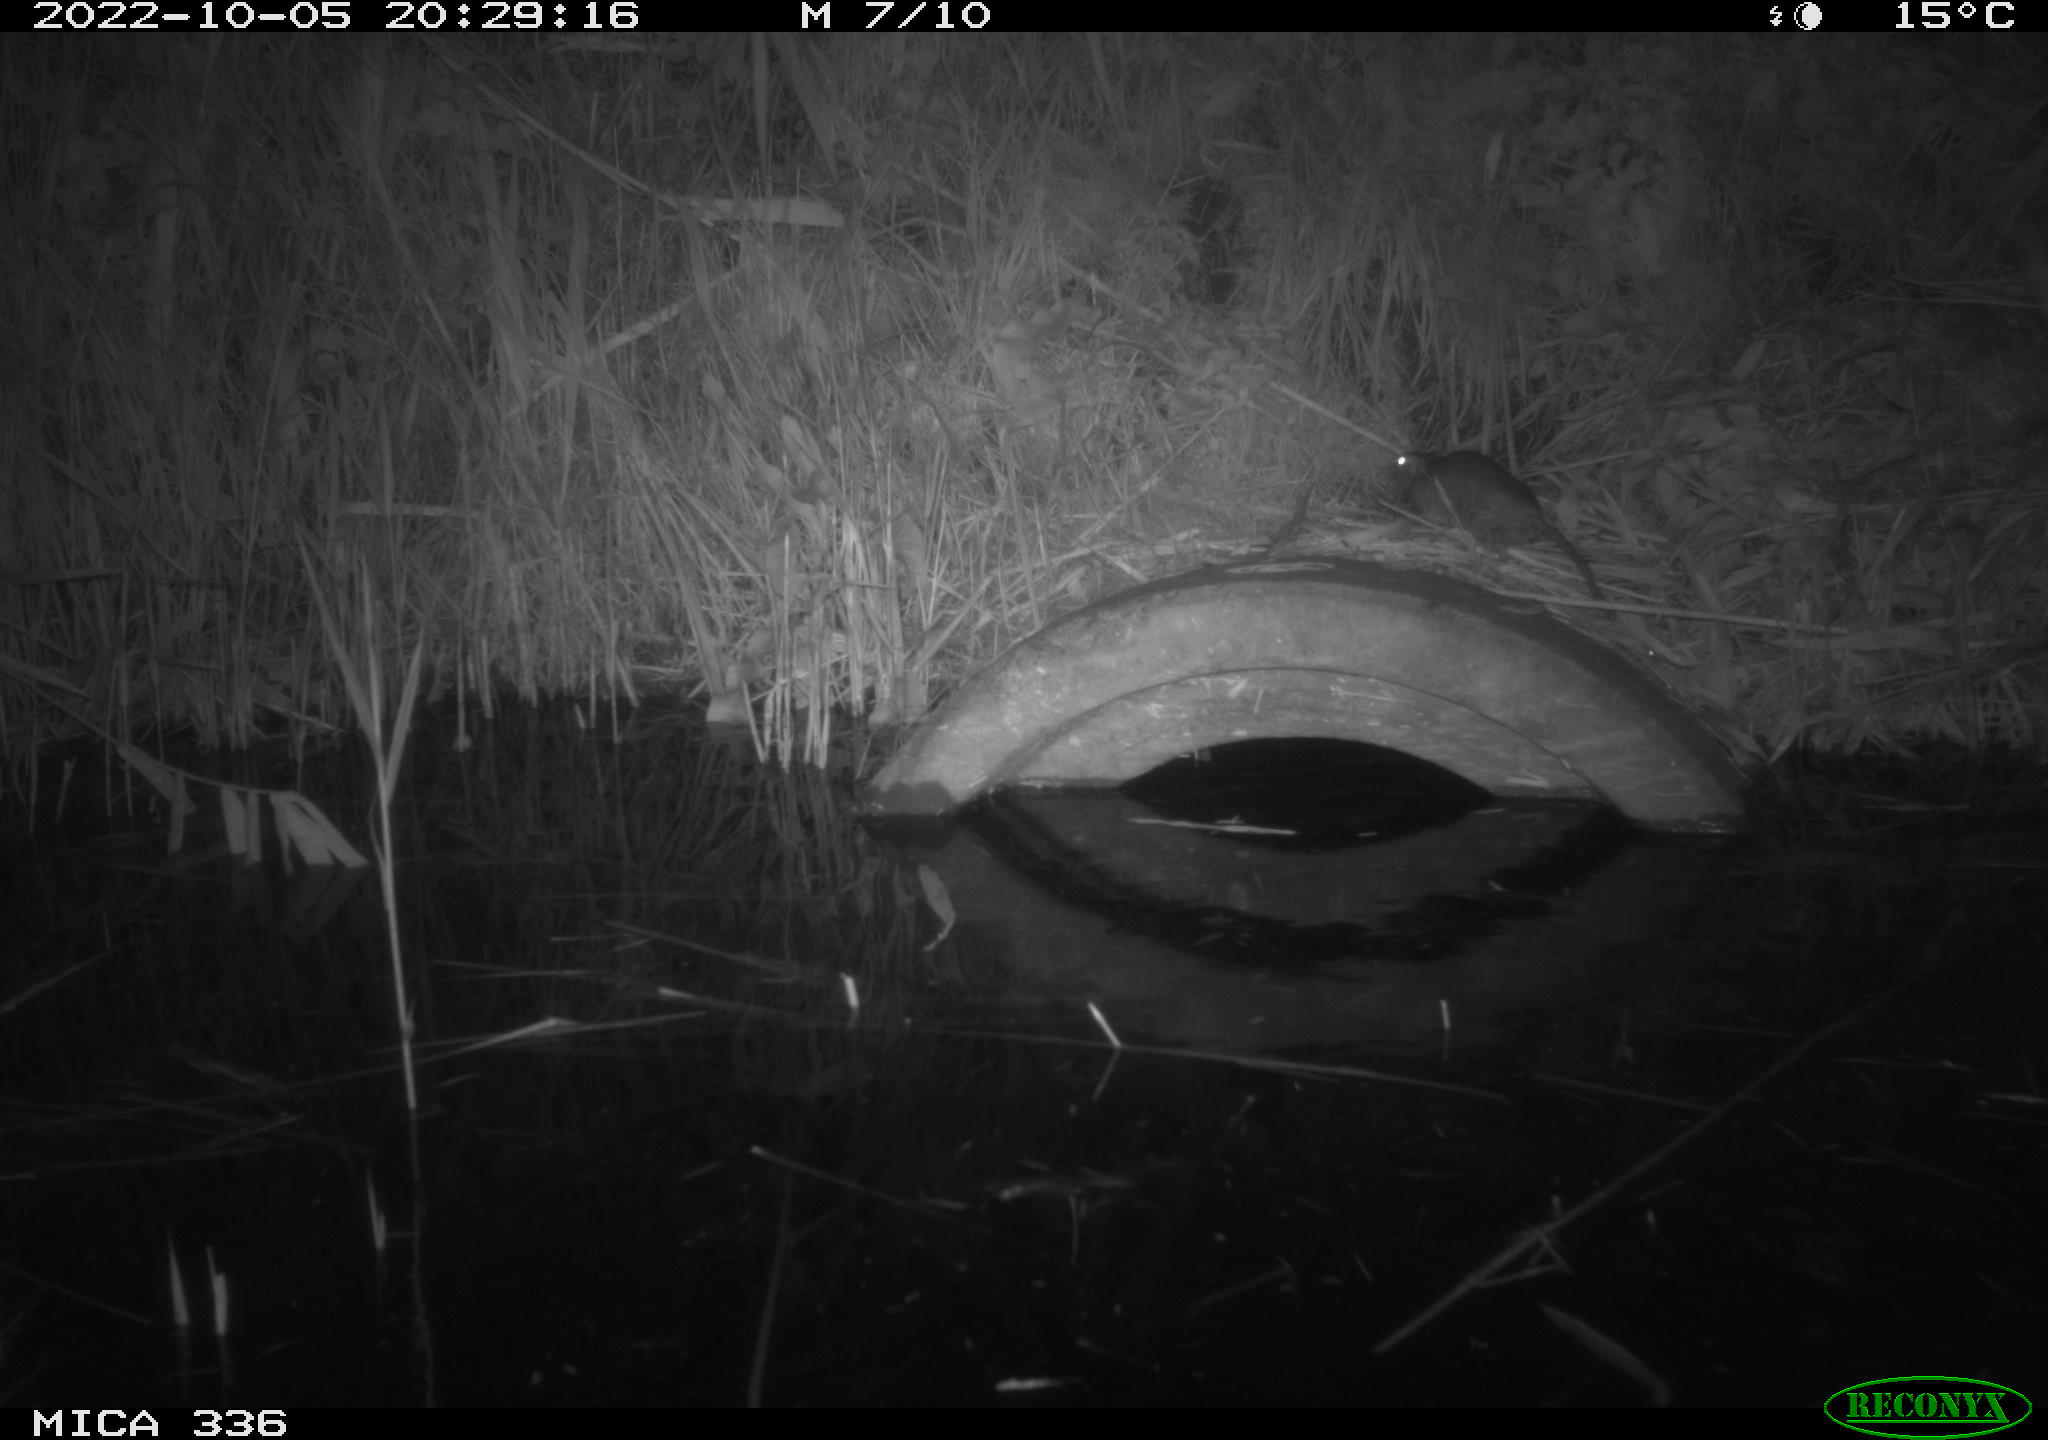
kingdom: Animalia
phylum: Chordata
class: Mammalia
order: Rodentia
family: Muridae
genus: Rattus
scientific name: Rattus norvegicus
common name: Brown rat
